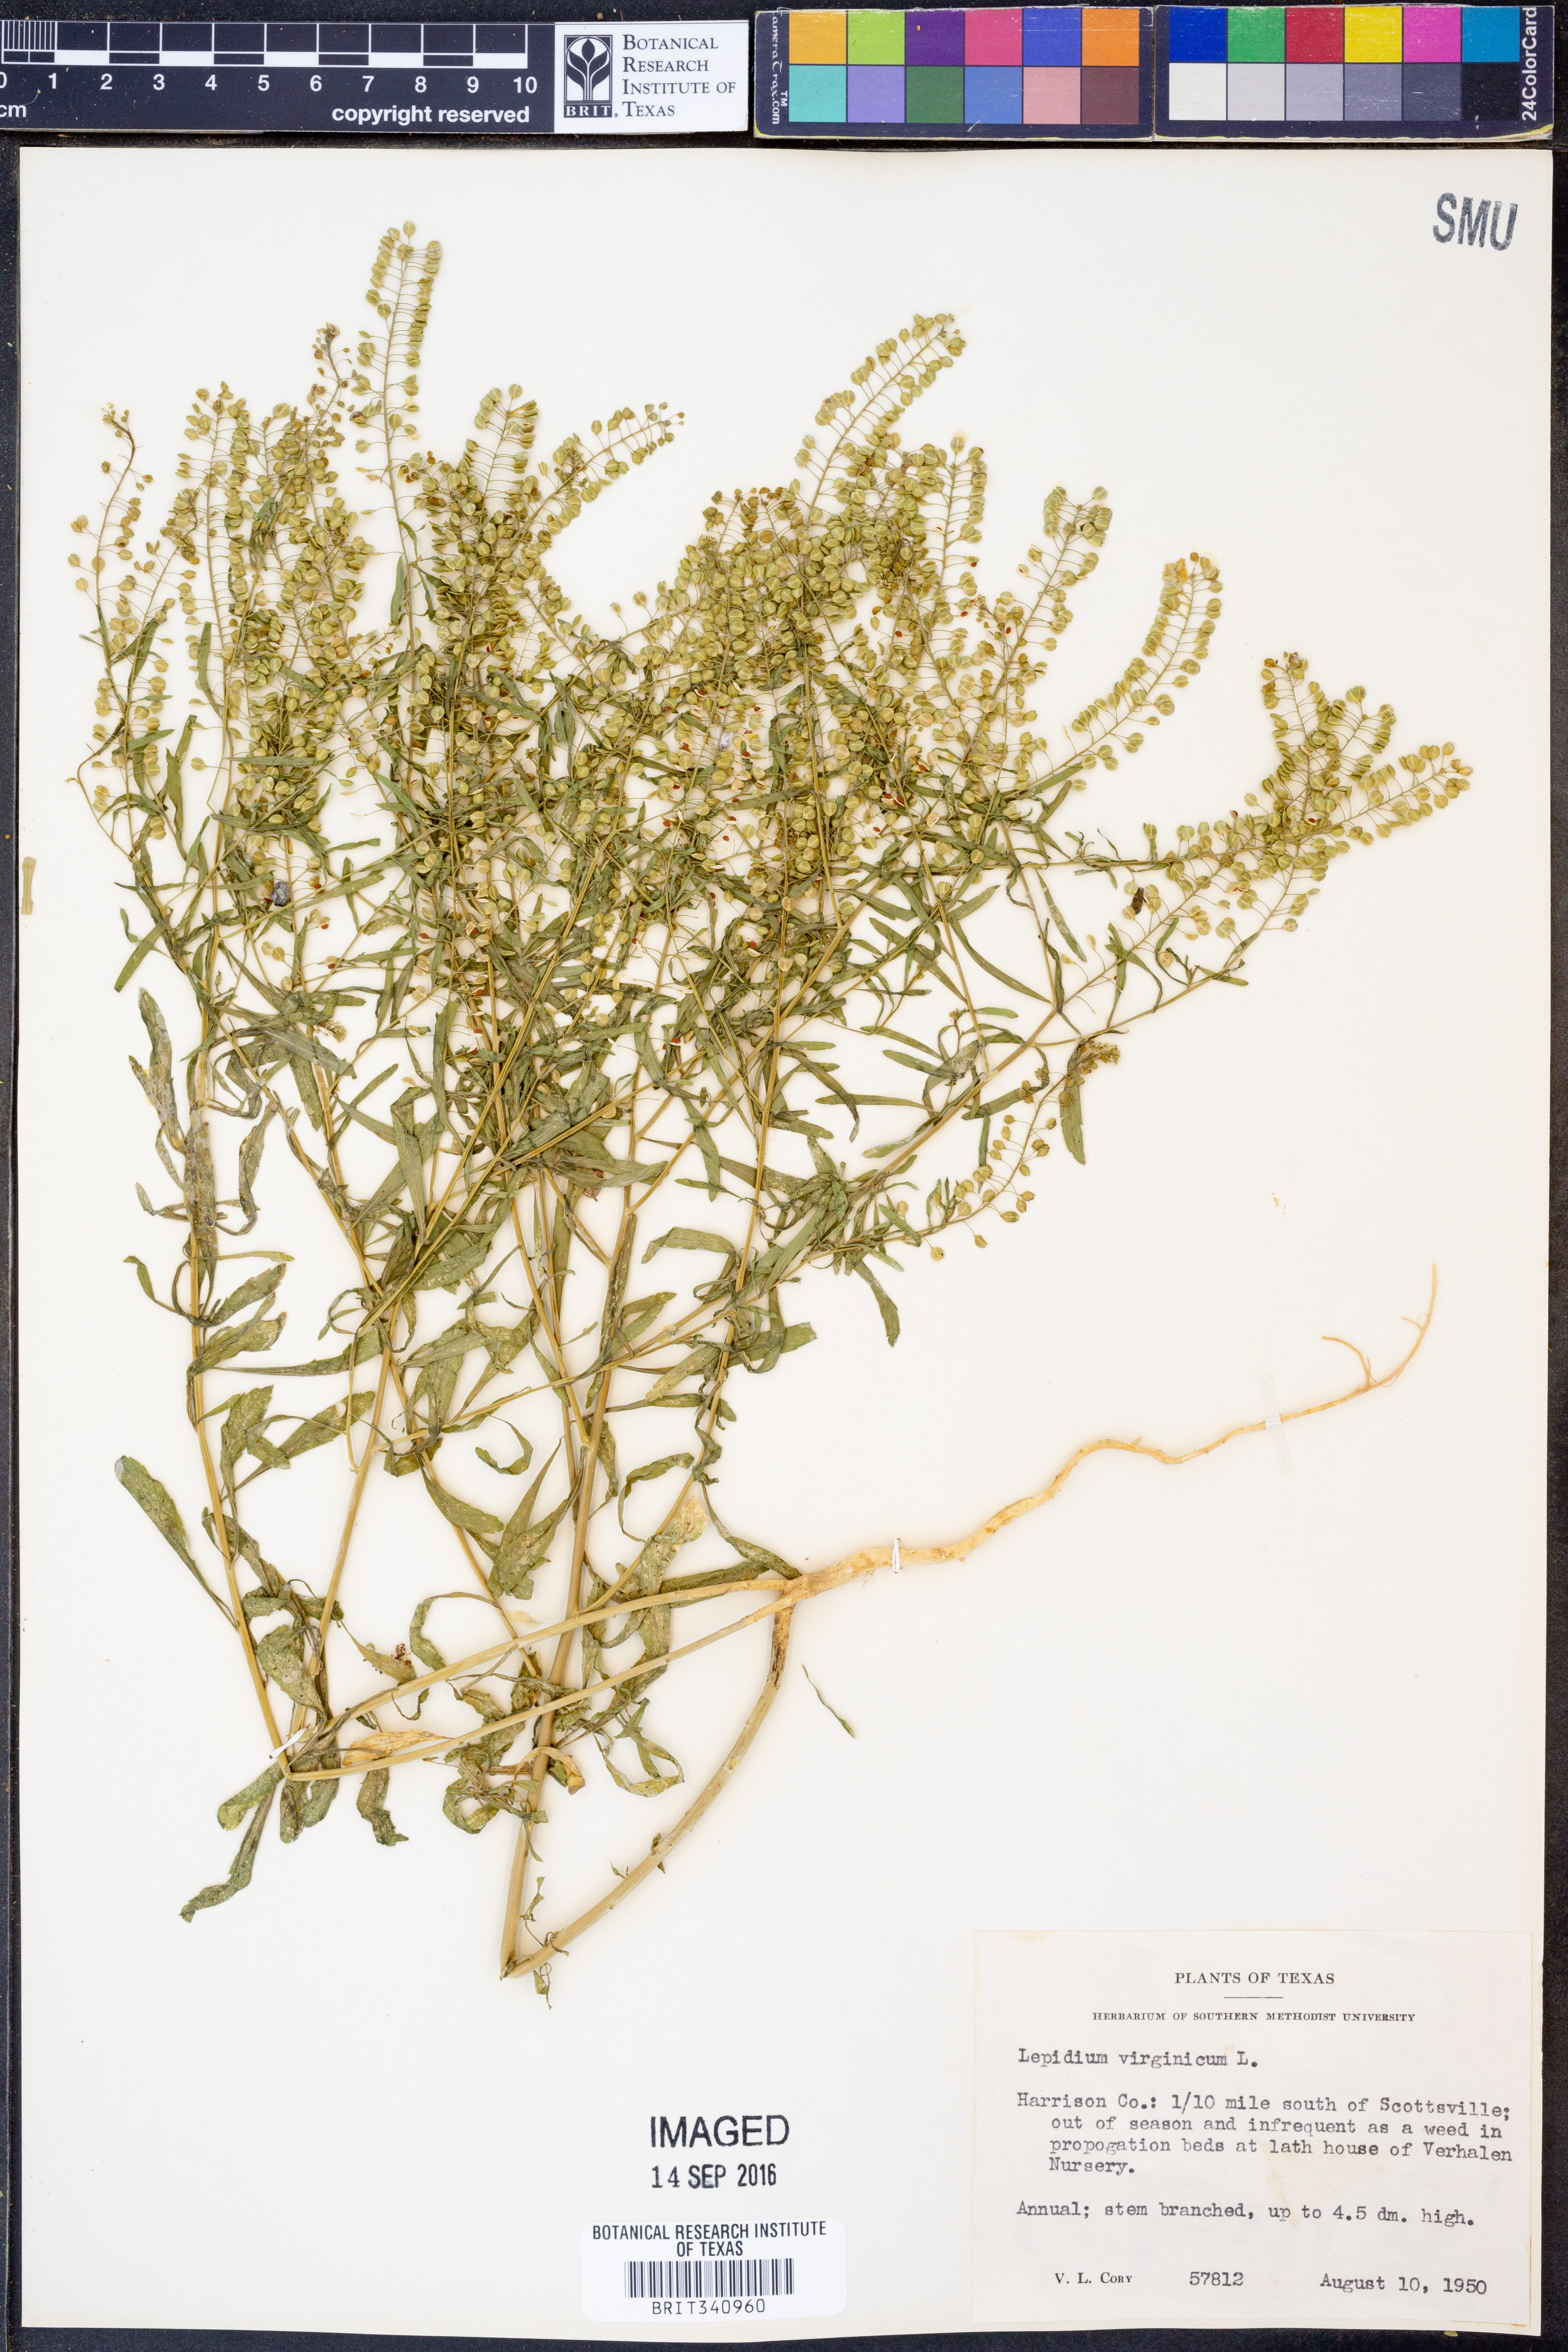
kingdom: Plantae
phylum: Tracheophyta
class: Magnoliopsida
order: Brassicales
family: Brassicaceae
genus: Lepidium
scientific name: Lepidium virginicum
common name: Least pepperwort
